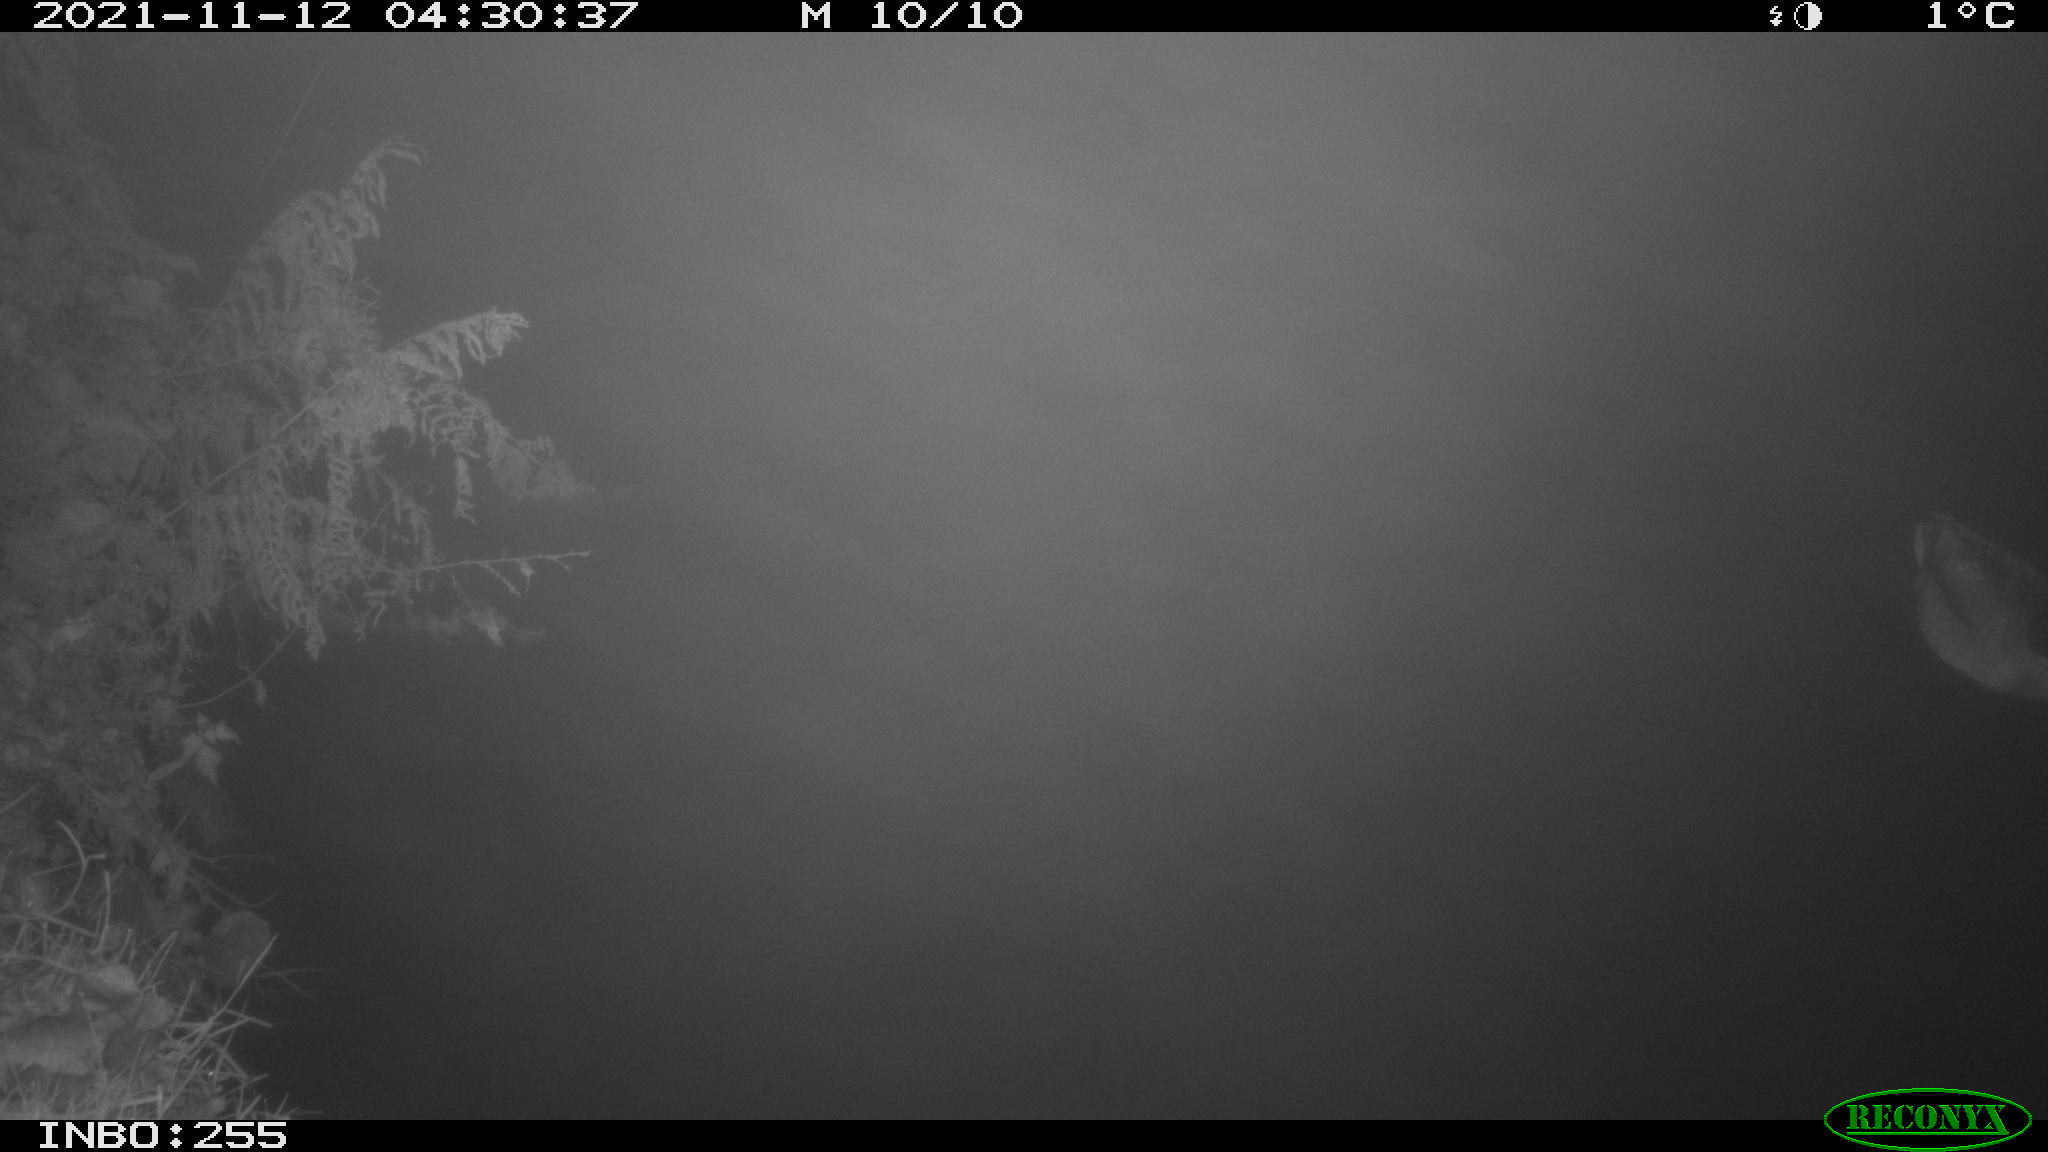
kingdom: Animalia
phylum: Chordata
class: Aves
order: Anseriformes
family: Anatidae
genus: Anas
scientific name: Anas platyrhynchos
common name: Mallard
